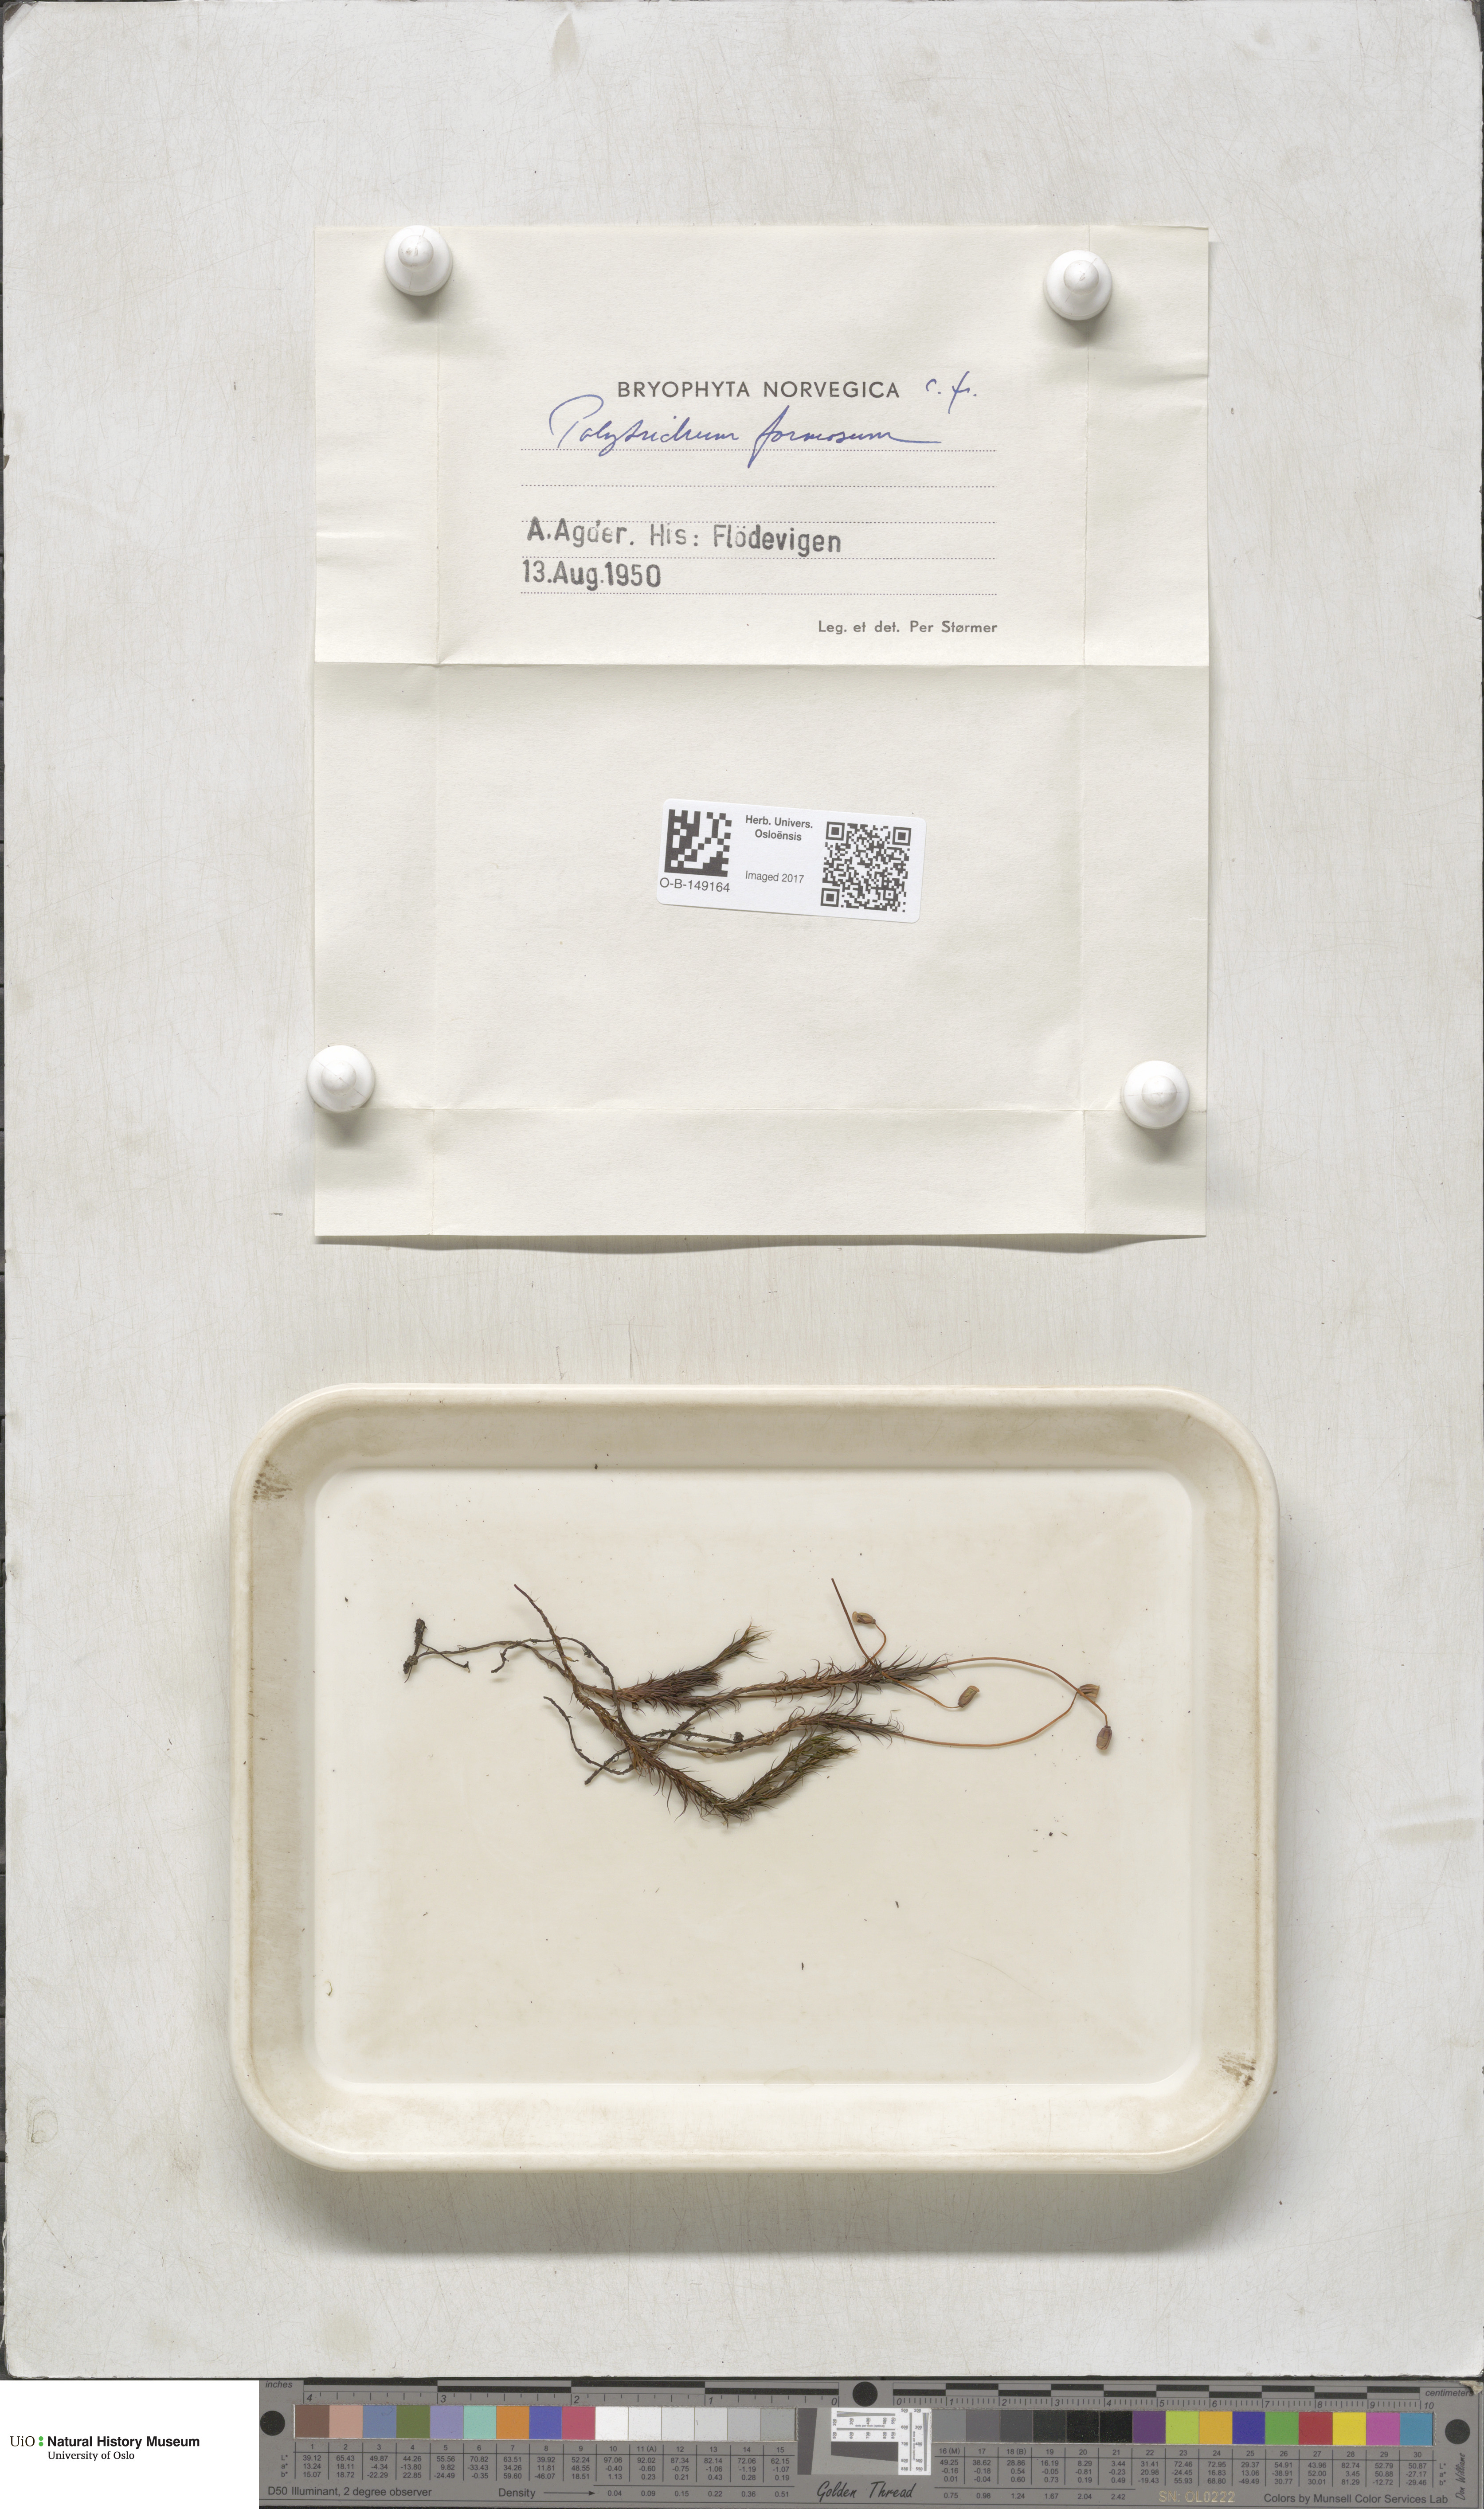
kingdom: Plantae
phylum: Bryophyta
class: Polytrichopsida
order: Polytrichales
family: Polytrichaceae
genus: Polytrichum
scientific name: Polytrichum formosum
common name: Bank haircap moss
